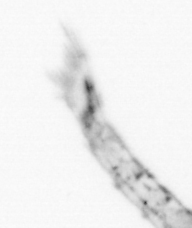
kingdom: Animalia
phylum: Arthropoda
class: Malacostraca
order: Decapoda
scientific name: Decapoda
